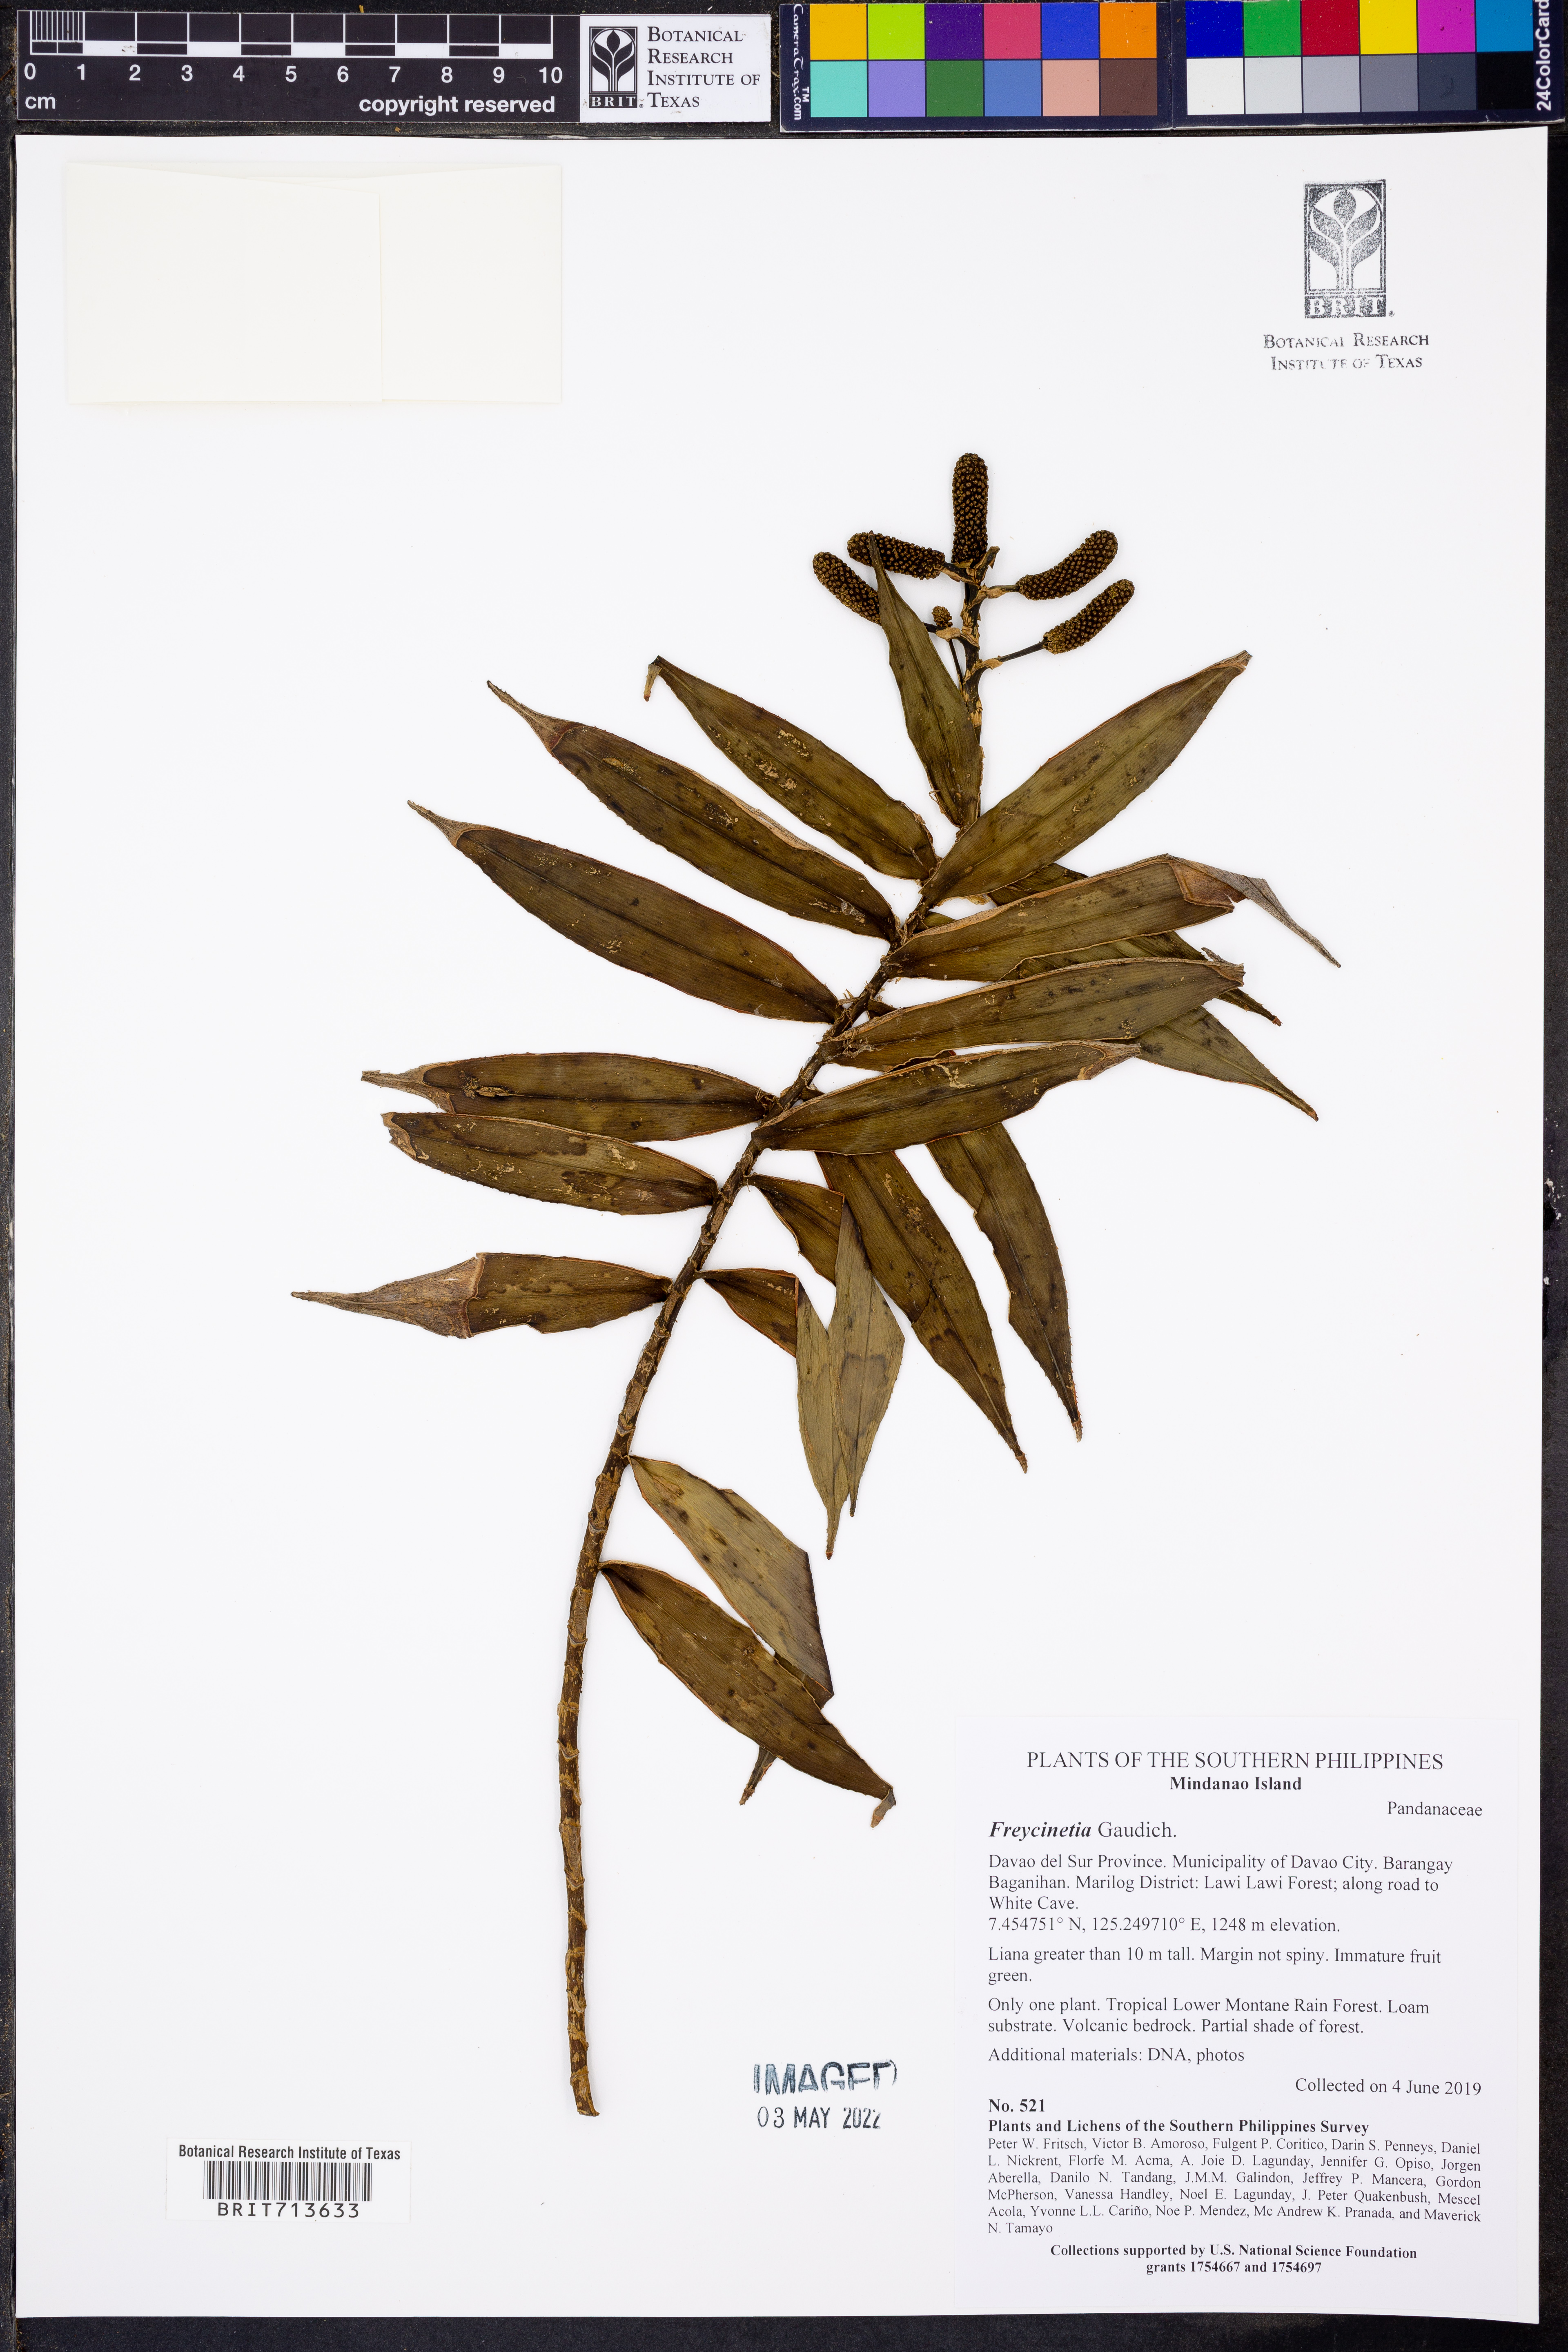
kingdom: Plantae
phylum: Tracheophyta
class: Liliopsida
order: Pandanales
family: Pandanaceae
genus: Freycinetia
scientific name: Freycinetia
